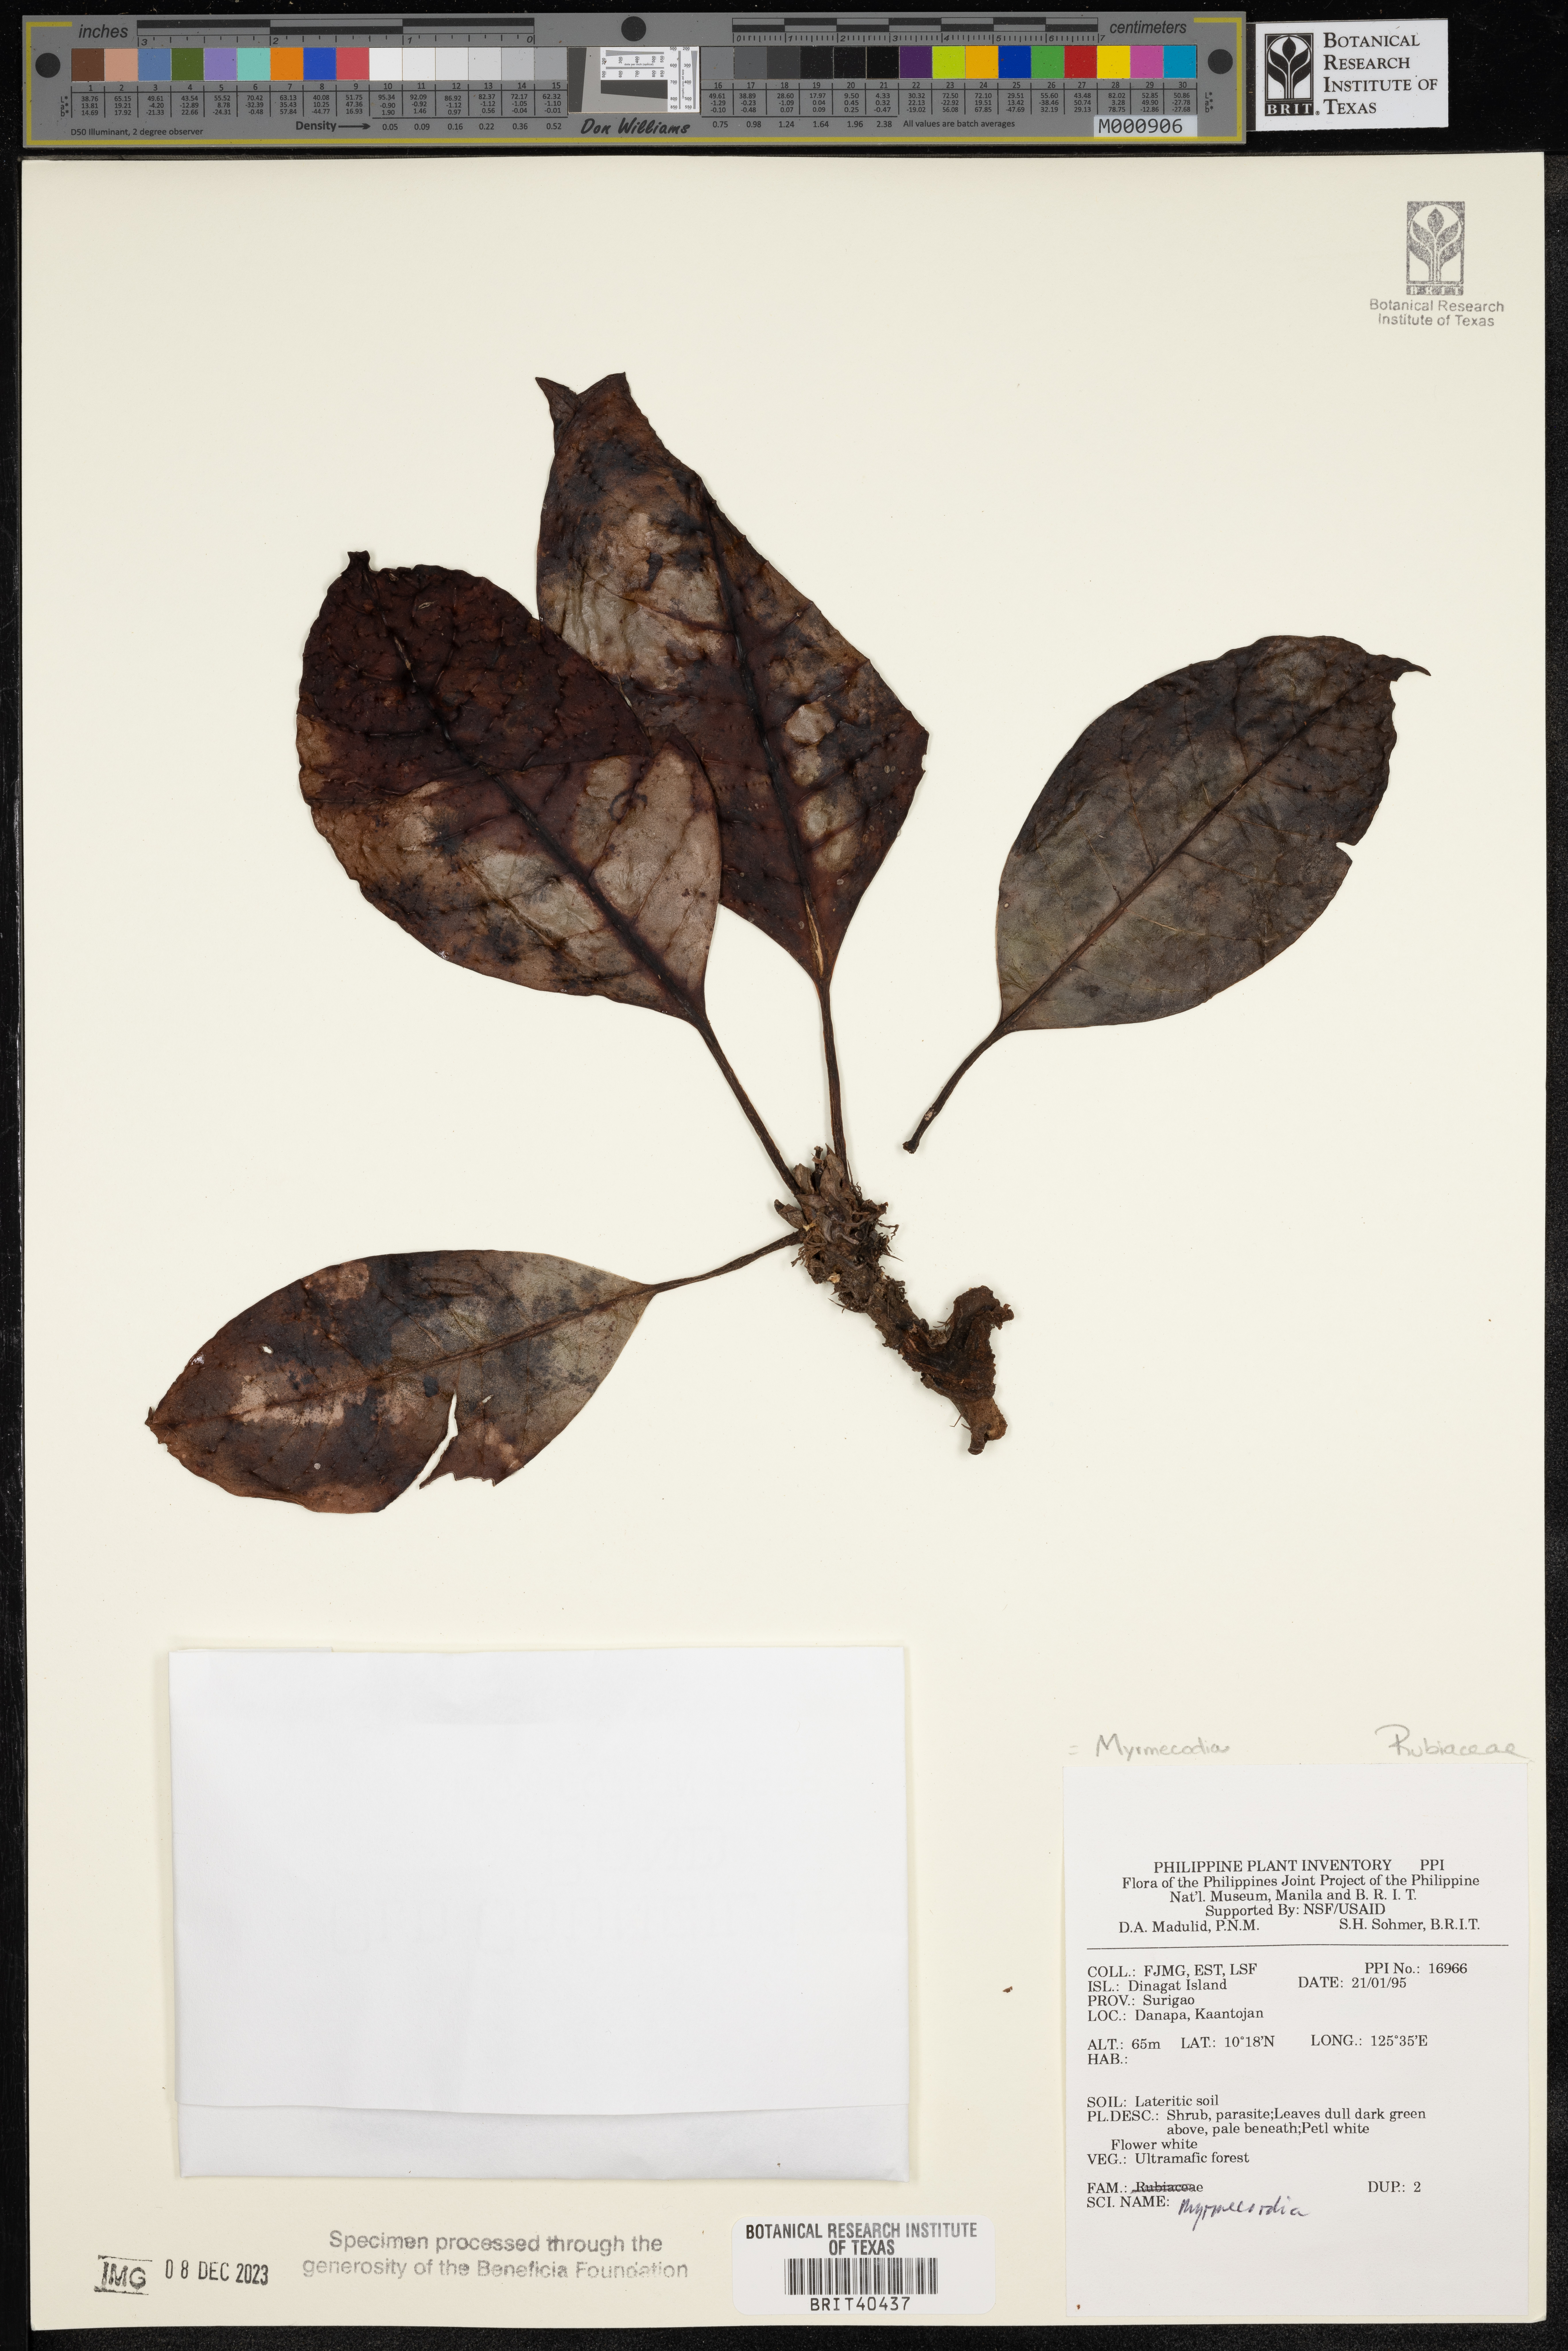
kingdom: Plantae
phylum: Tracheophyta
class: Magnoliopsida
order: Gentianales
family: Rubiaceae
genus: Myrmecodia
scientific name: Myrmecodia
